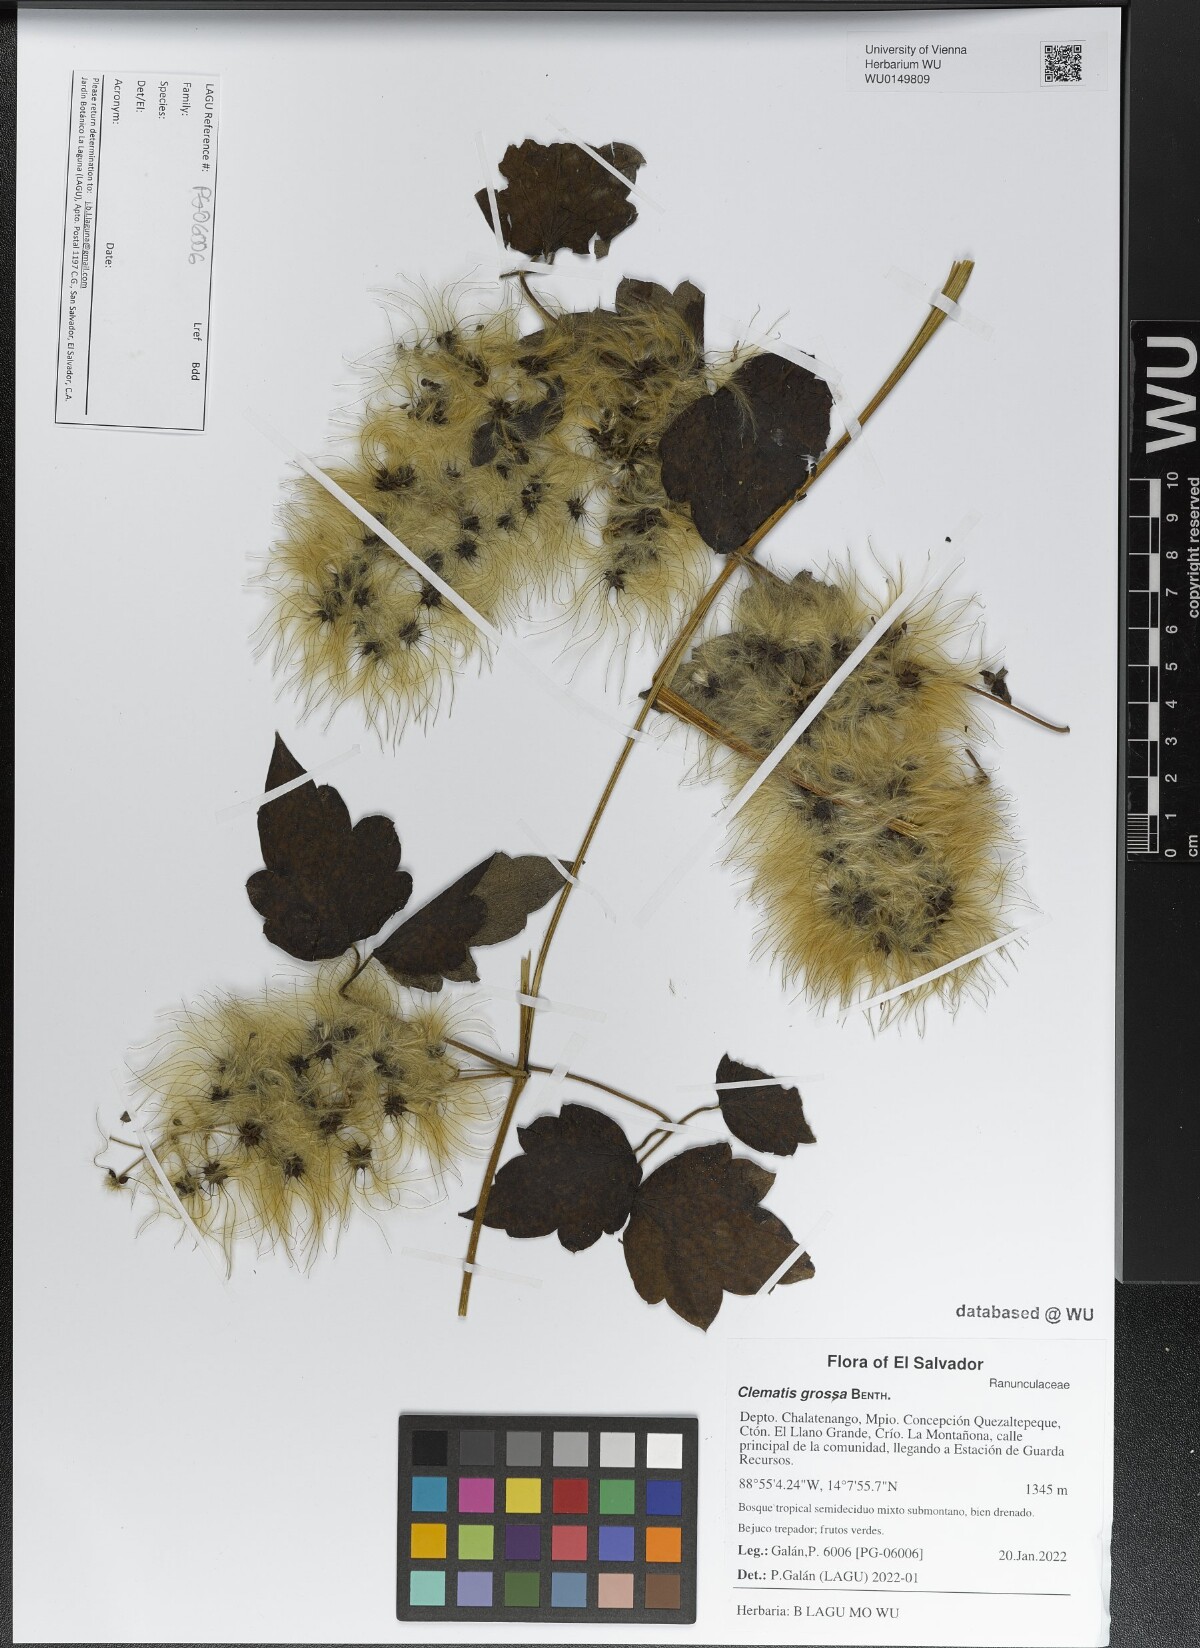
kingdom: Plantae
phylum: Tracheophyta
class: Magnoliopsida
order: Ranunculales
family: Ranunculaceae
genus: Clematis
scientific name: Clematis grossa
